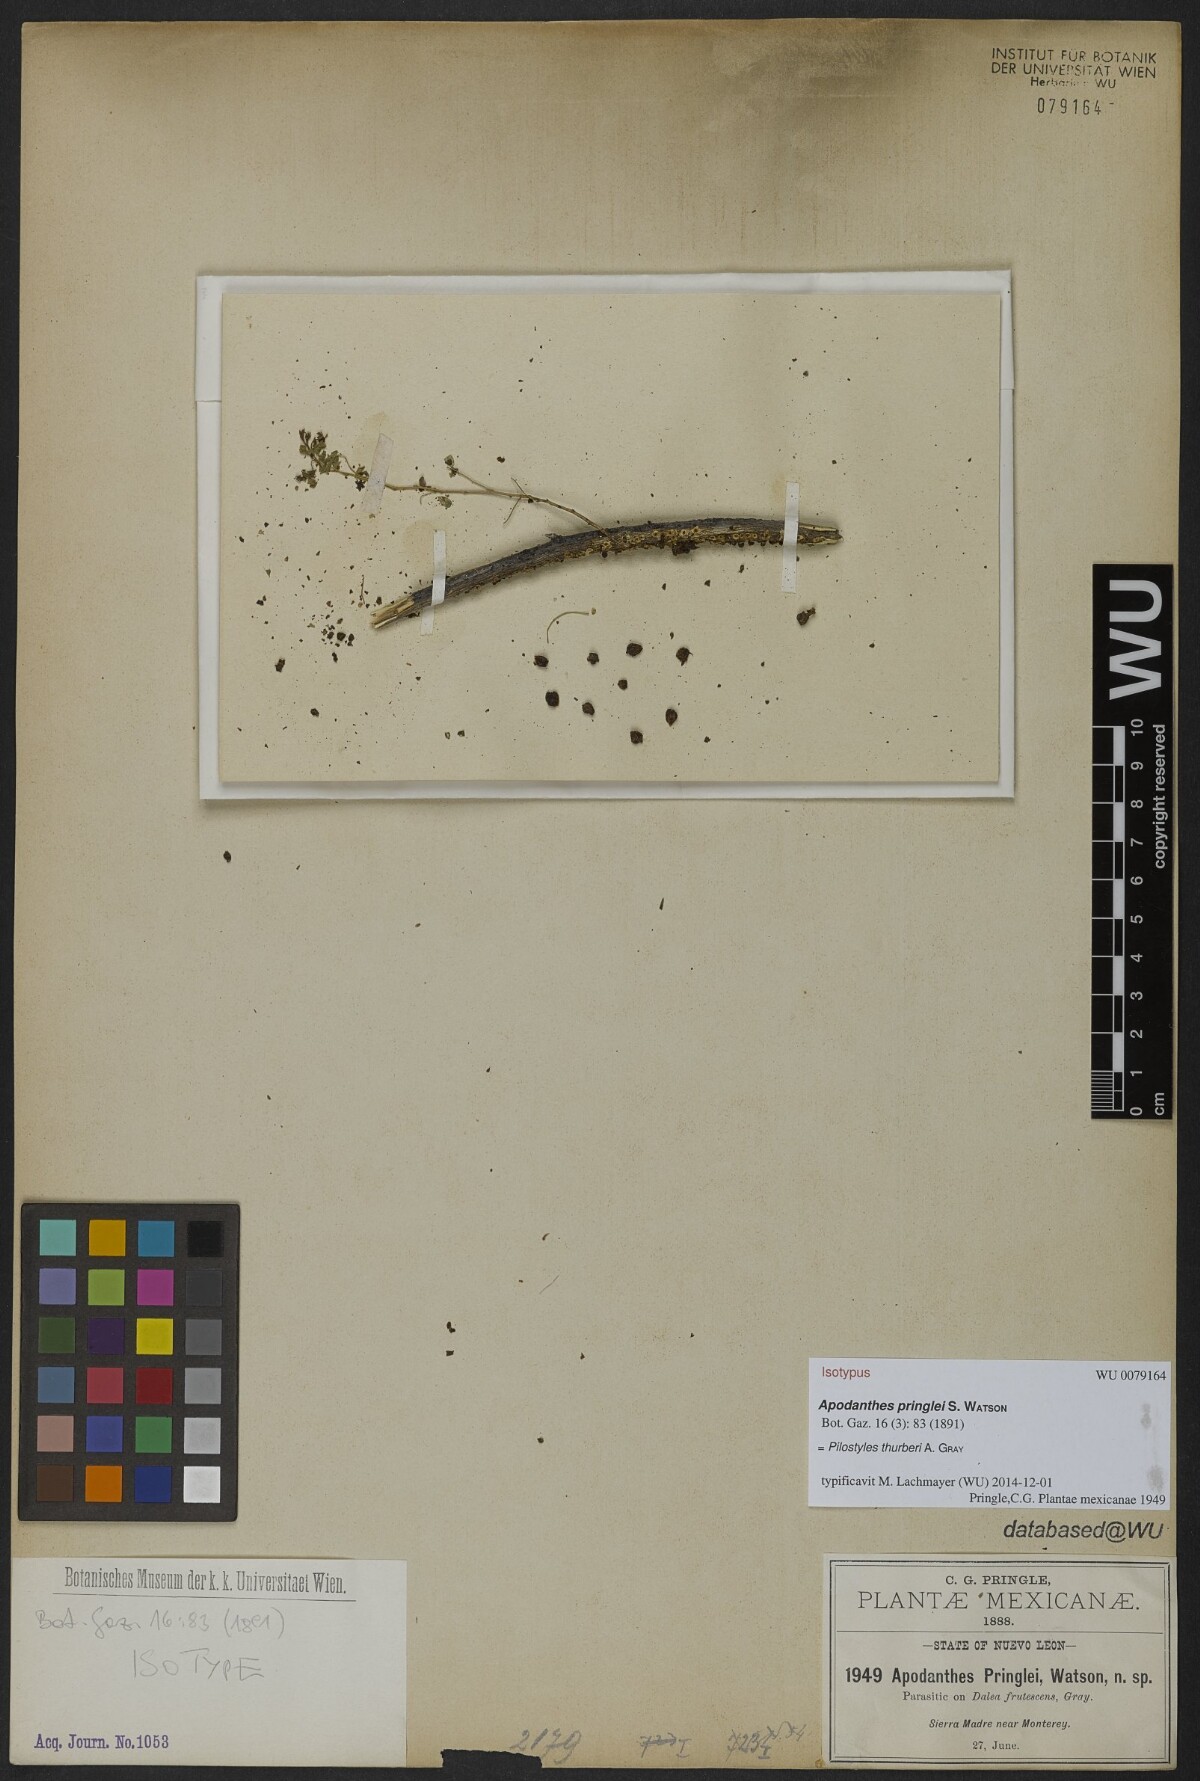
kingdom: Plantae
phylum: Tracheophyta
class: Magnoliopsida
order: Cucurbitales
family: Apodanthaceae
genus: Pilostyles
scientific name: Pilostyles thurberi
